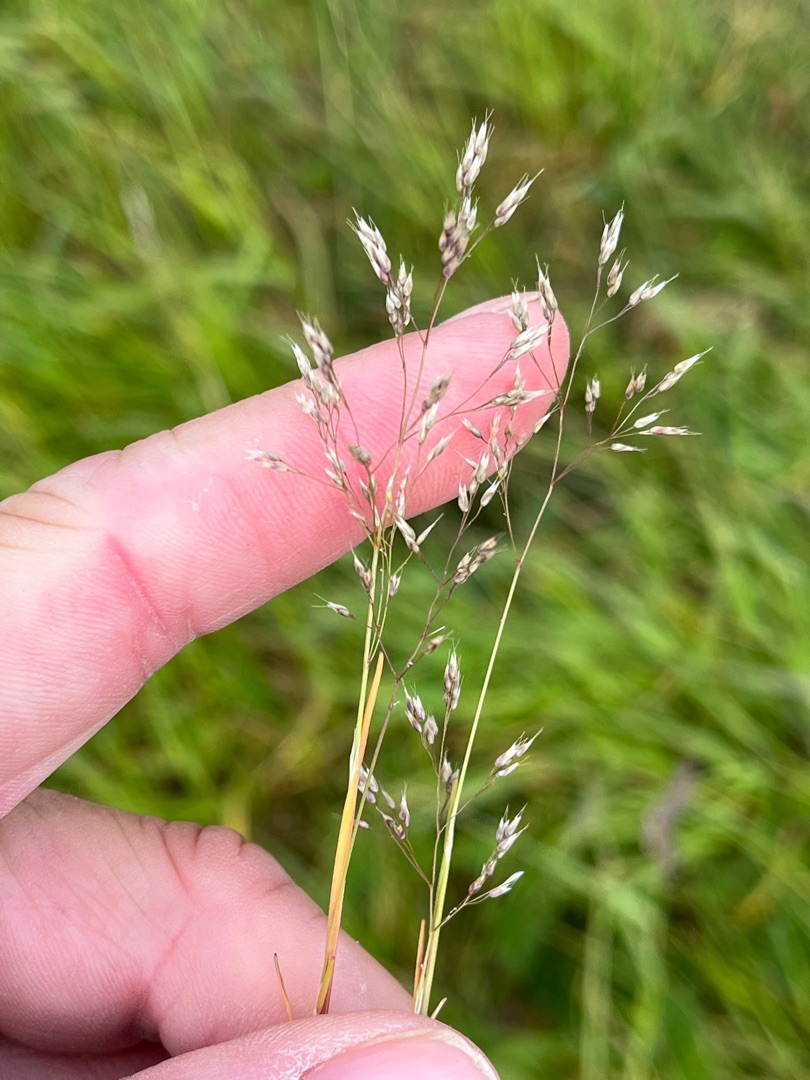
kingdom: Plantae
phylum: Tracheophyta
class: Liliopsida
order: Poales
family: Poaceae
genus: Aira
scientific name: Aira caryophyllea
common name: Udspærret dværgbunke
